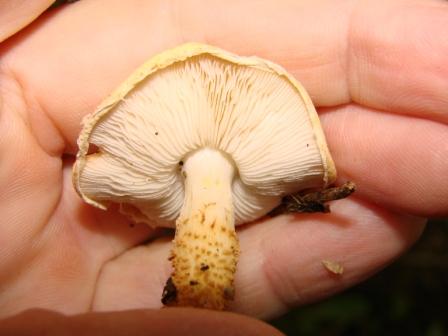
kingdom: Fungi
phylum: Basidiomycota
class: Agaricomycetes
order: Agaricales
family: Agaricaceae
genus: Echinoderma
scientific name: Echinoderma carinii
